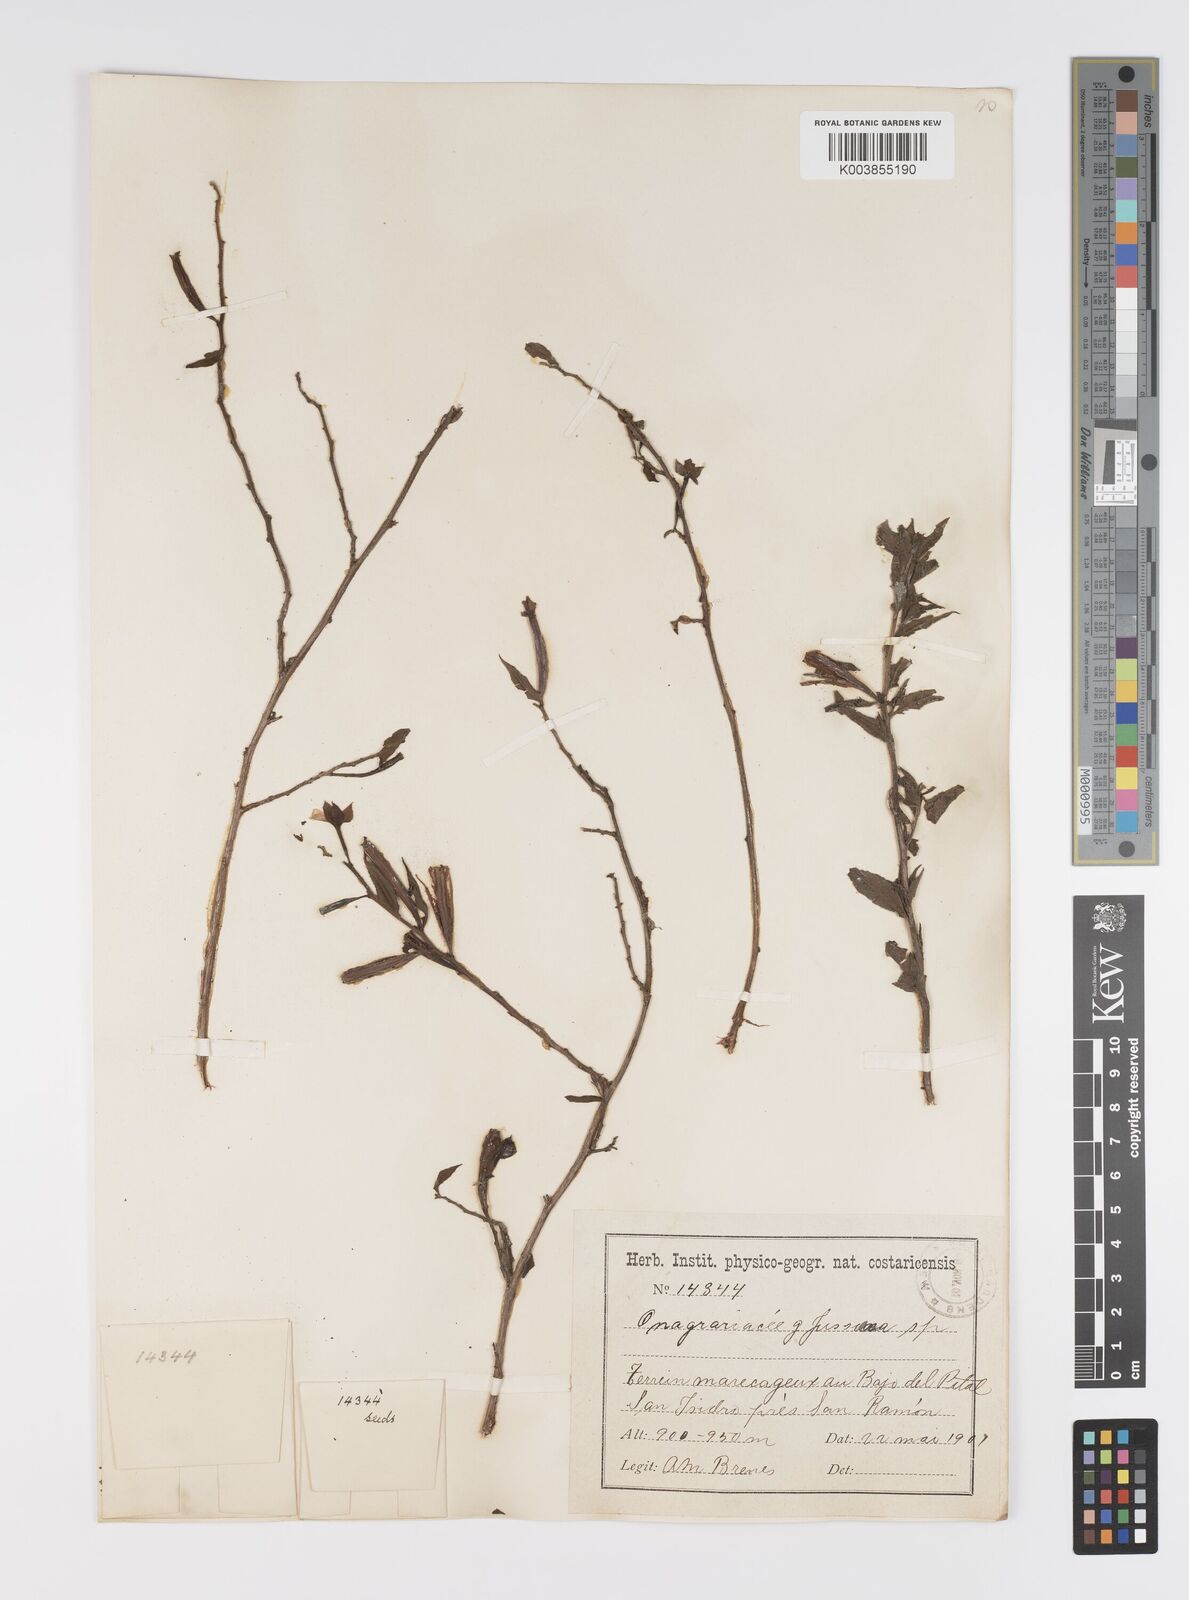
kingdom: Plantae
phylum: Tracheophyta
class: Magnoliopsida
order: Myrtales
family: Onagraceae
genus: Ludwigia
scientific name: Ludwigia
